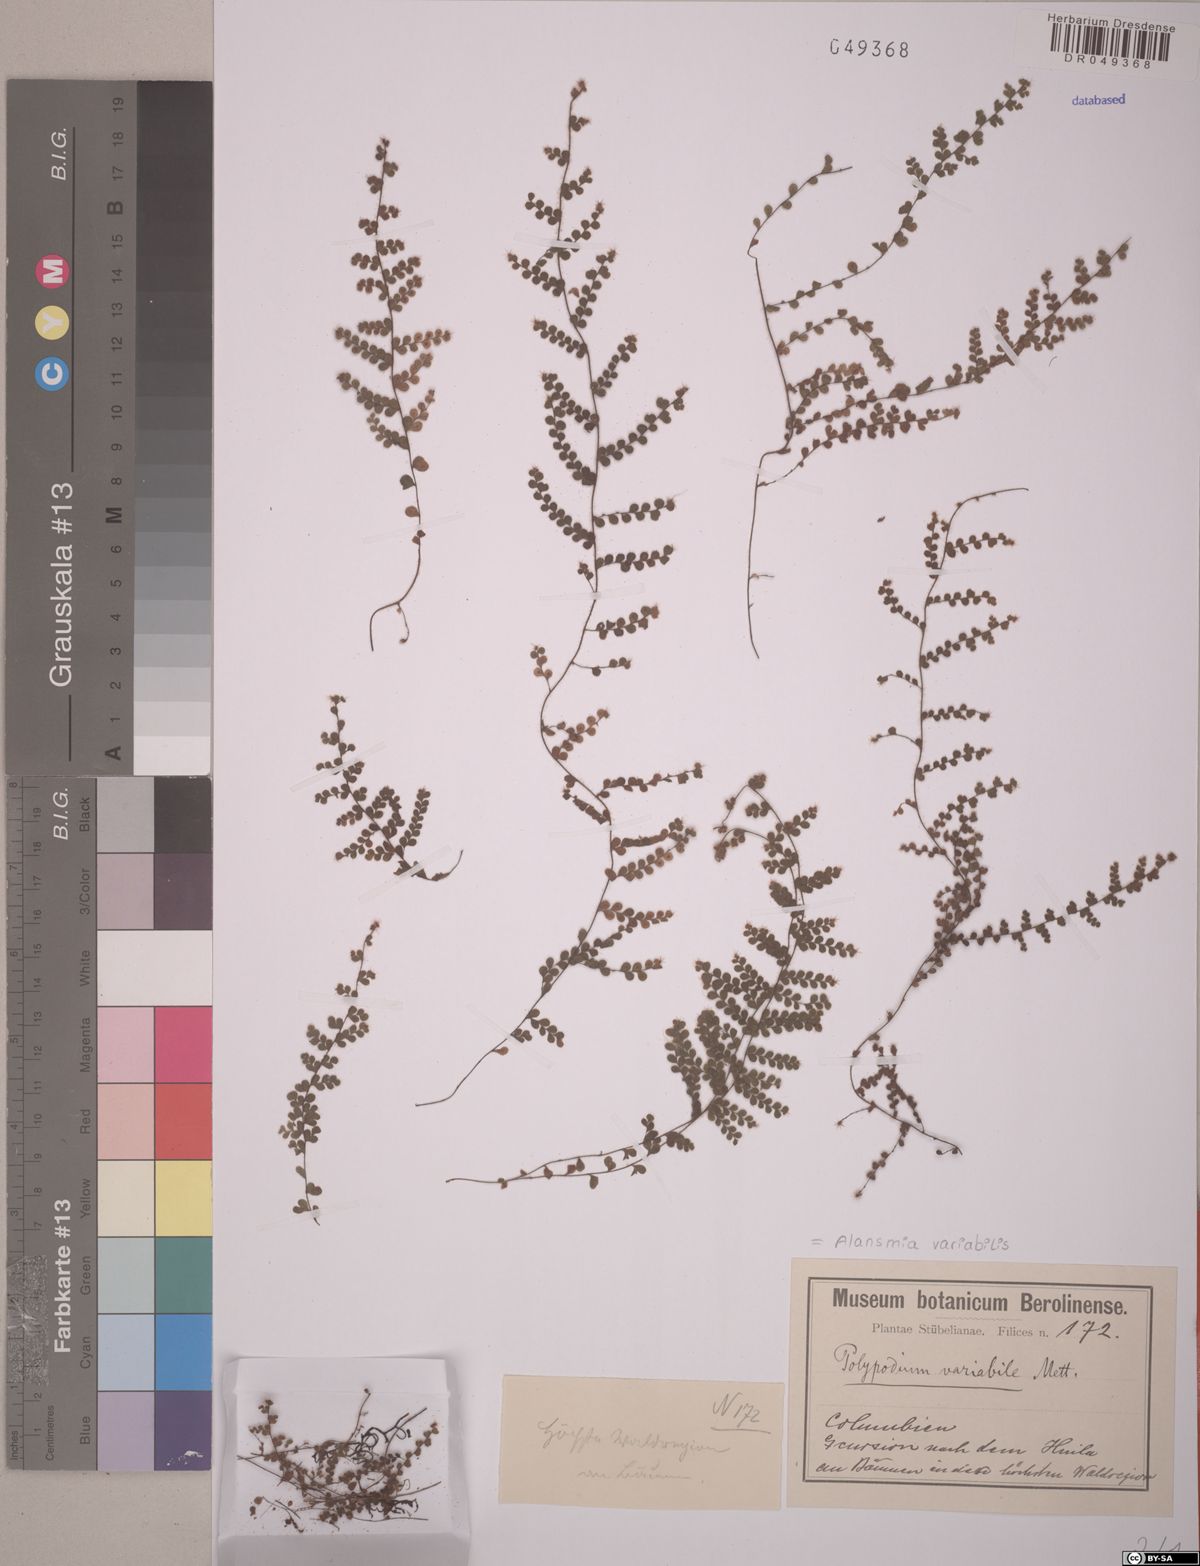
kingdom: Plantae
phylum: Tracheophyta
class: Polypodiopsida
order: Polypodiales
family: Polypodiaceae
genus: Alansmia
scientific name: Alansmia variabilis
